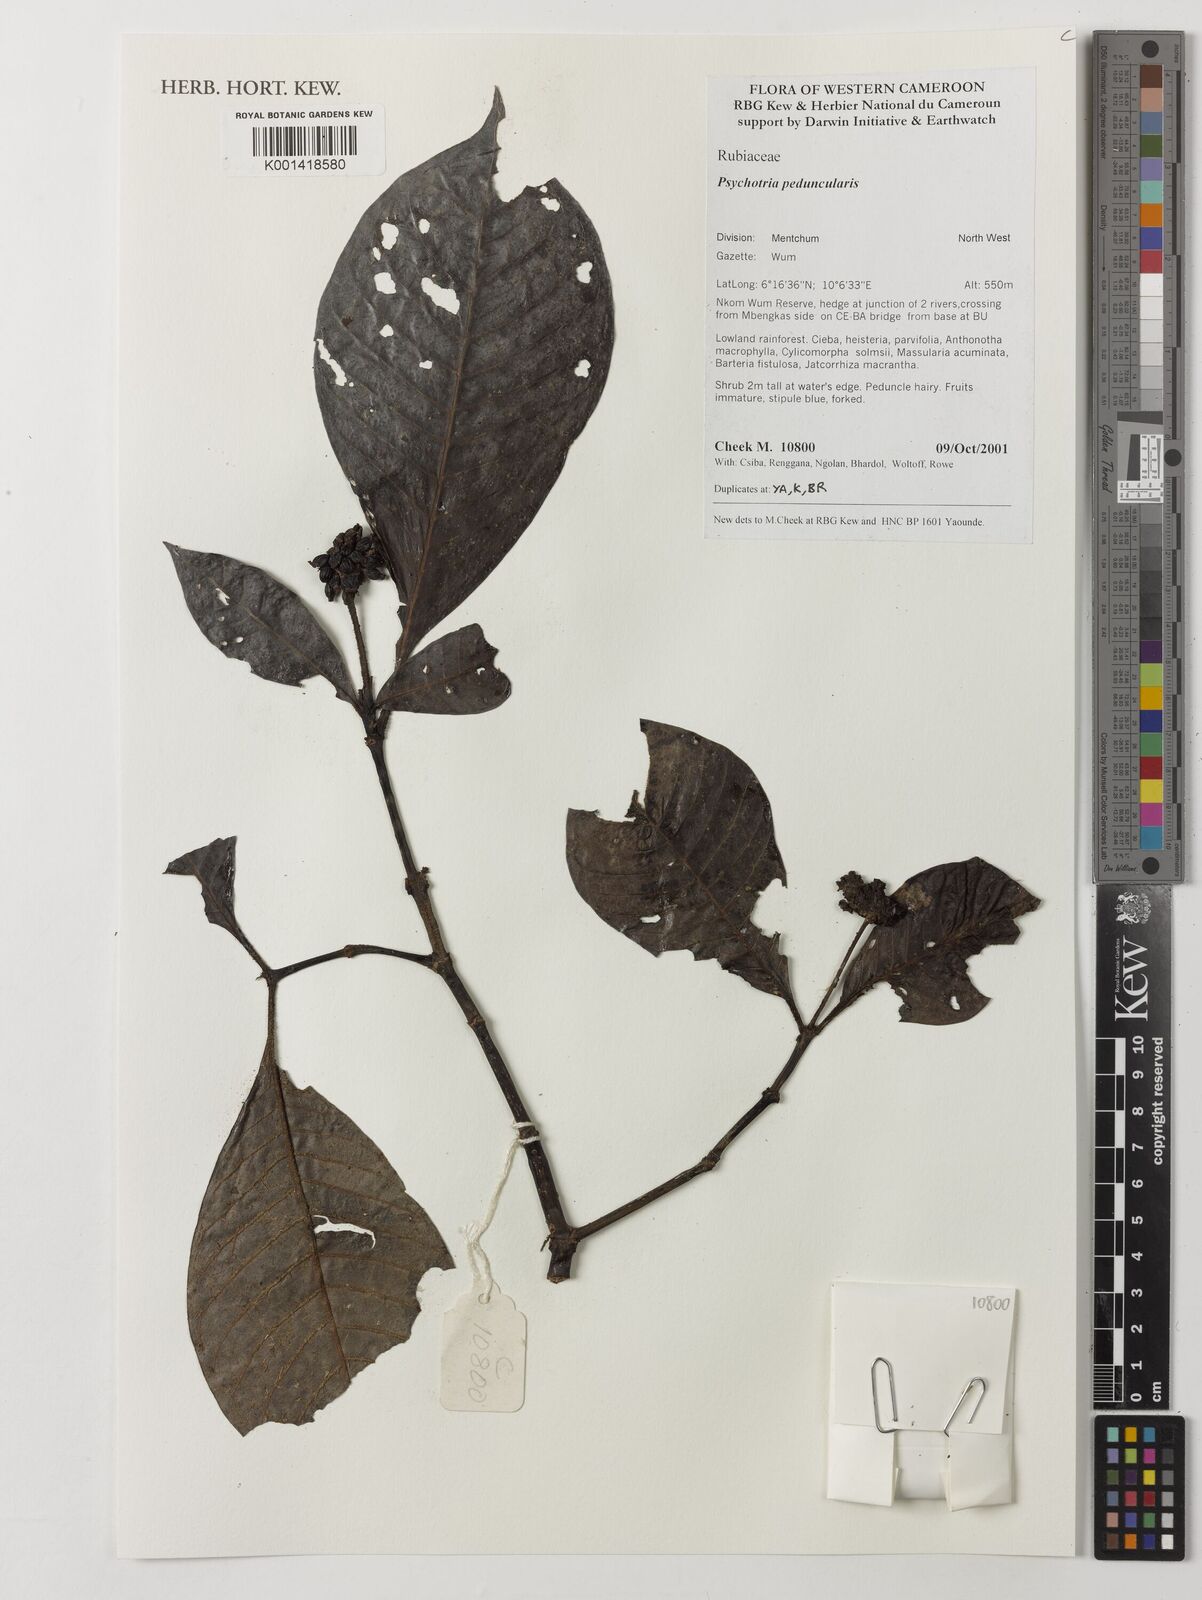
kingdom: Plantae
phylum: Tracheophyta
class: Magnoliopsida
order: Gentianales
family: Rubiaceae
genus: Psychotria
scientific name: Psychotria peduncularis
